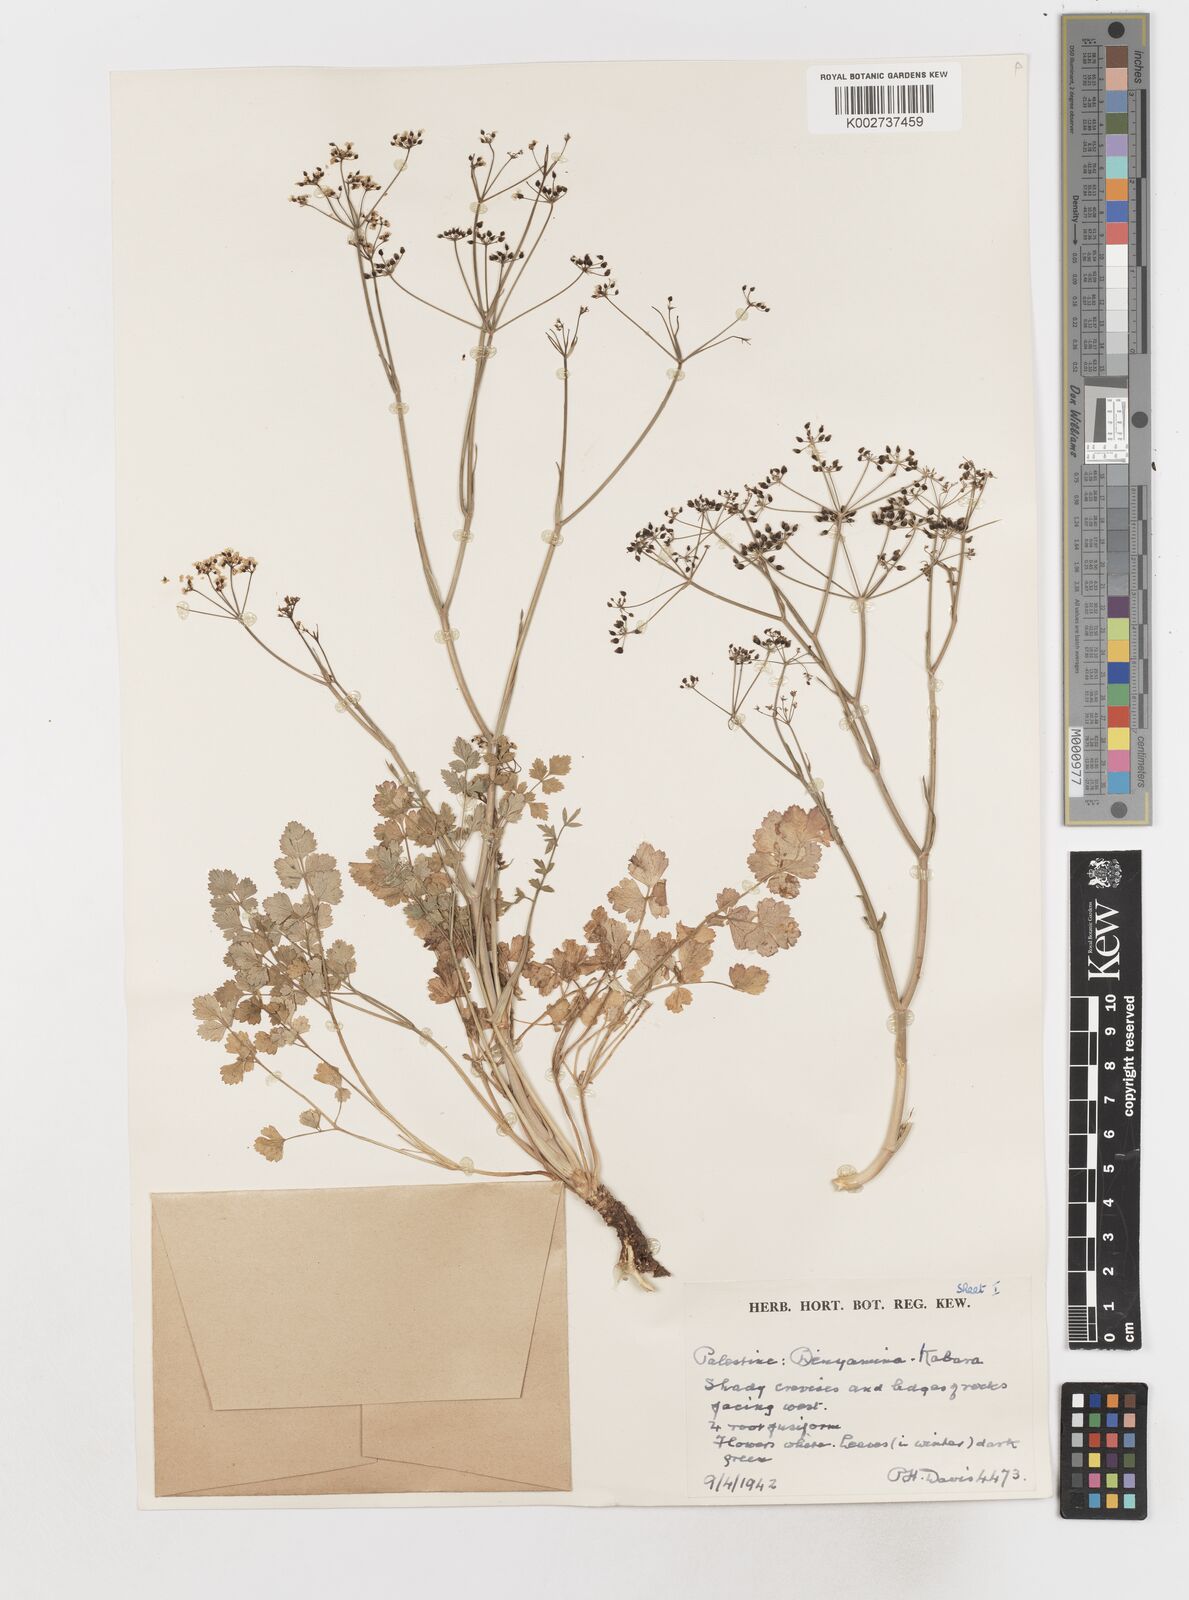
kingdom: Plantae
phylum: Tracheophyta
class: Magnoliopsida
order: Apiales
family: Apiaceae
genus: Scaligeria
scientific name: Scaligeria
